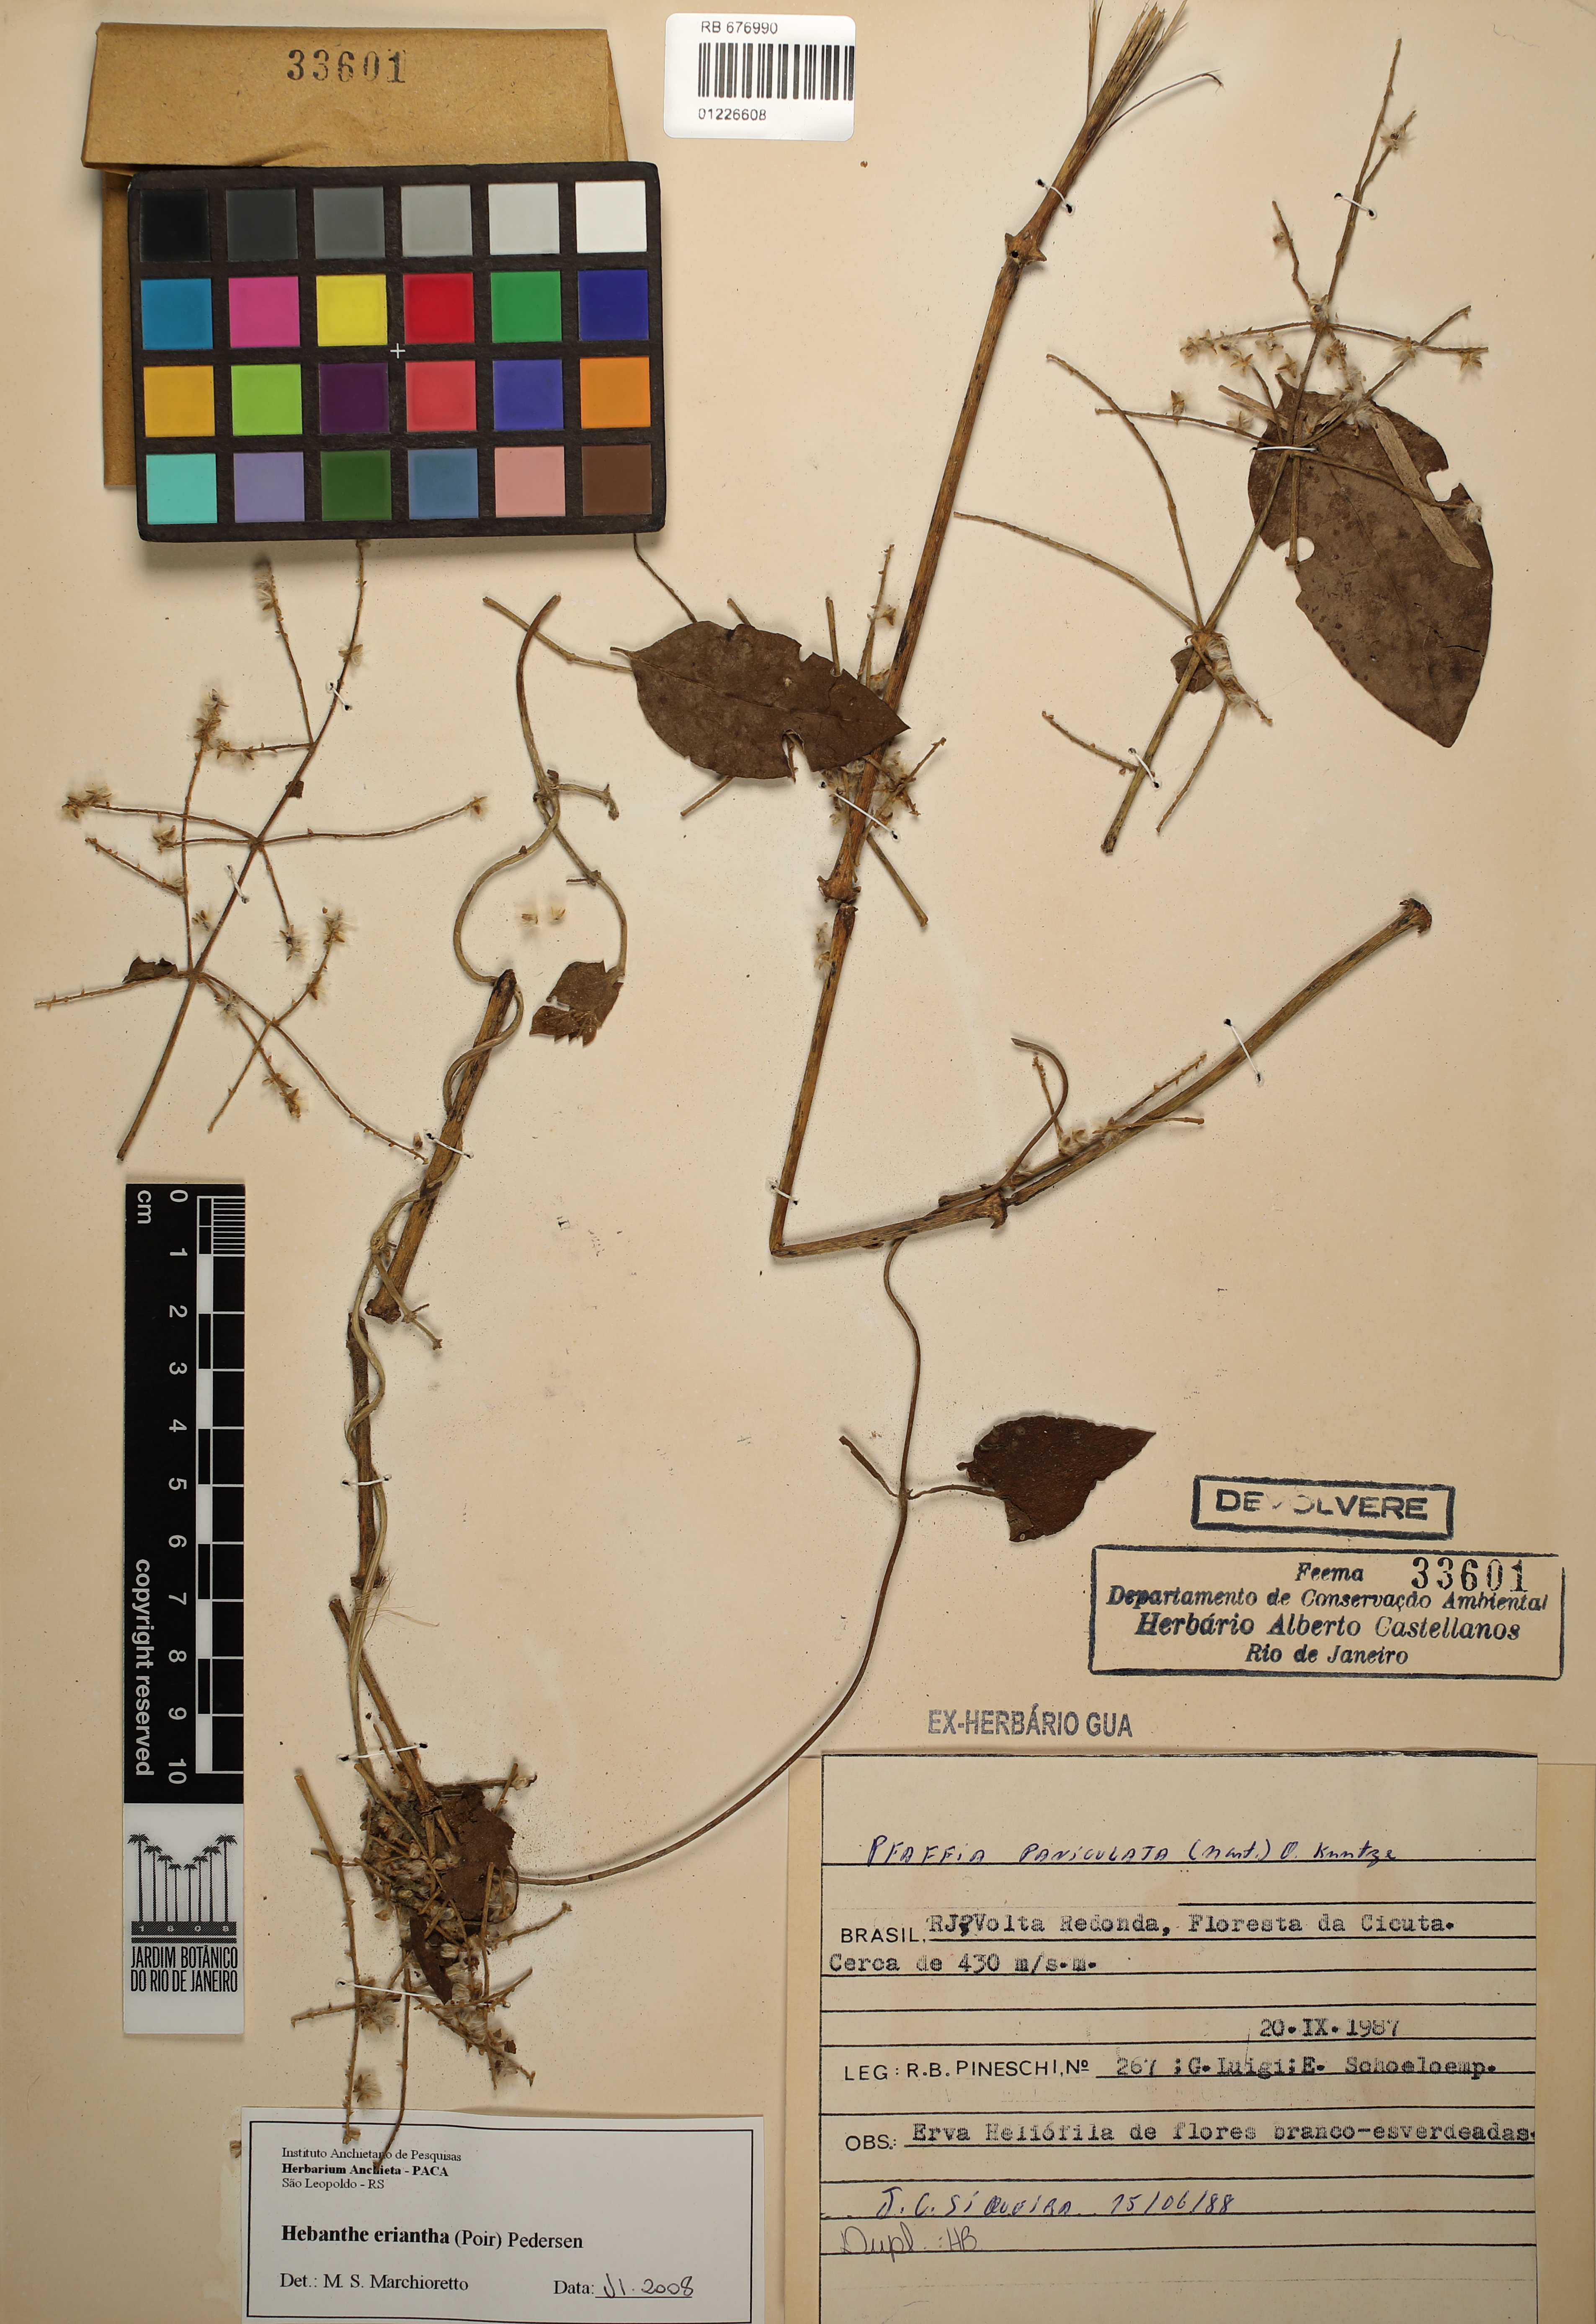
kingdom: Plantae
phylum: Tracheophyta
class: Magnoliopsida
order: Caryophyllales
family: Amaranthaceae
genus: Hebanthe
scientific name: Hebanthe erianthos
